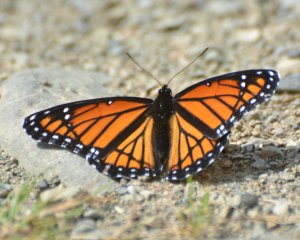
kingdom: Animalia
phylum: Arthropoda
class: Insecta
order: Lepidoptera
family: Nymphalidae
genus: Limenitis
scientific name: Limenitis archippus
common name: Viceroy
